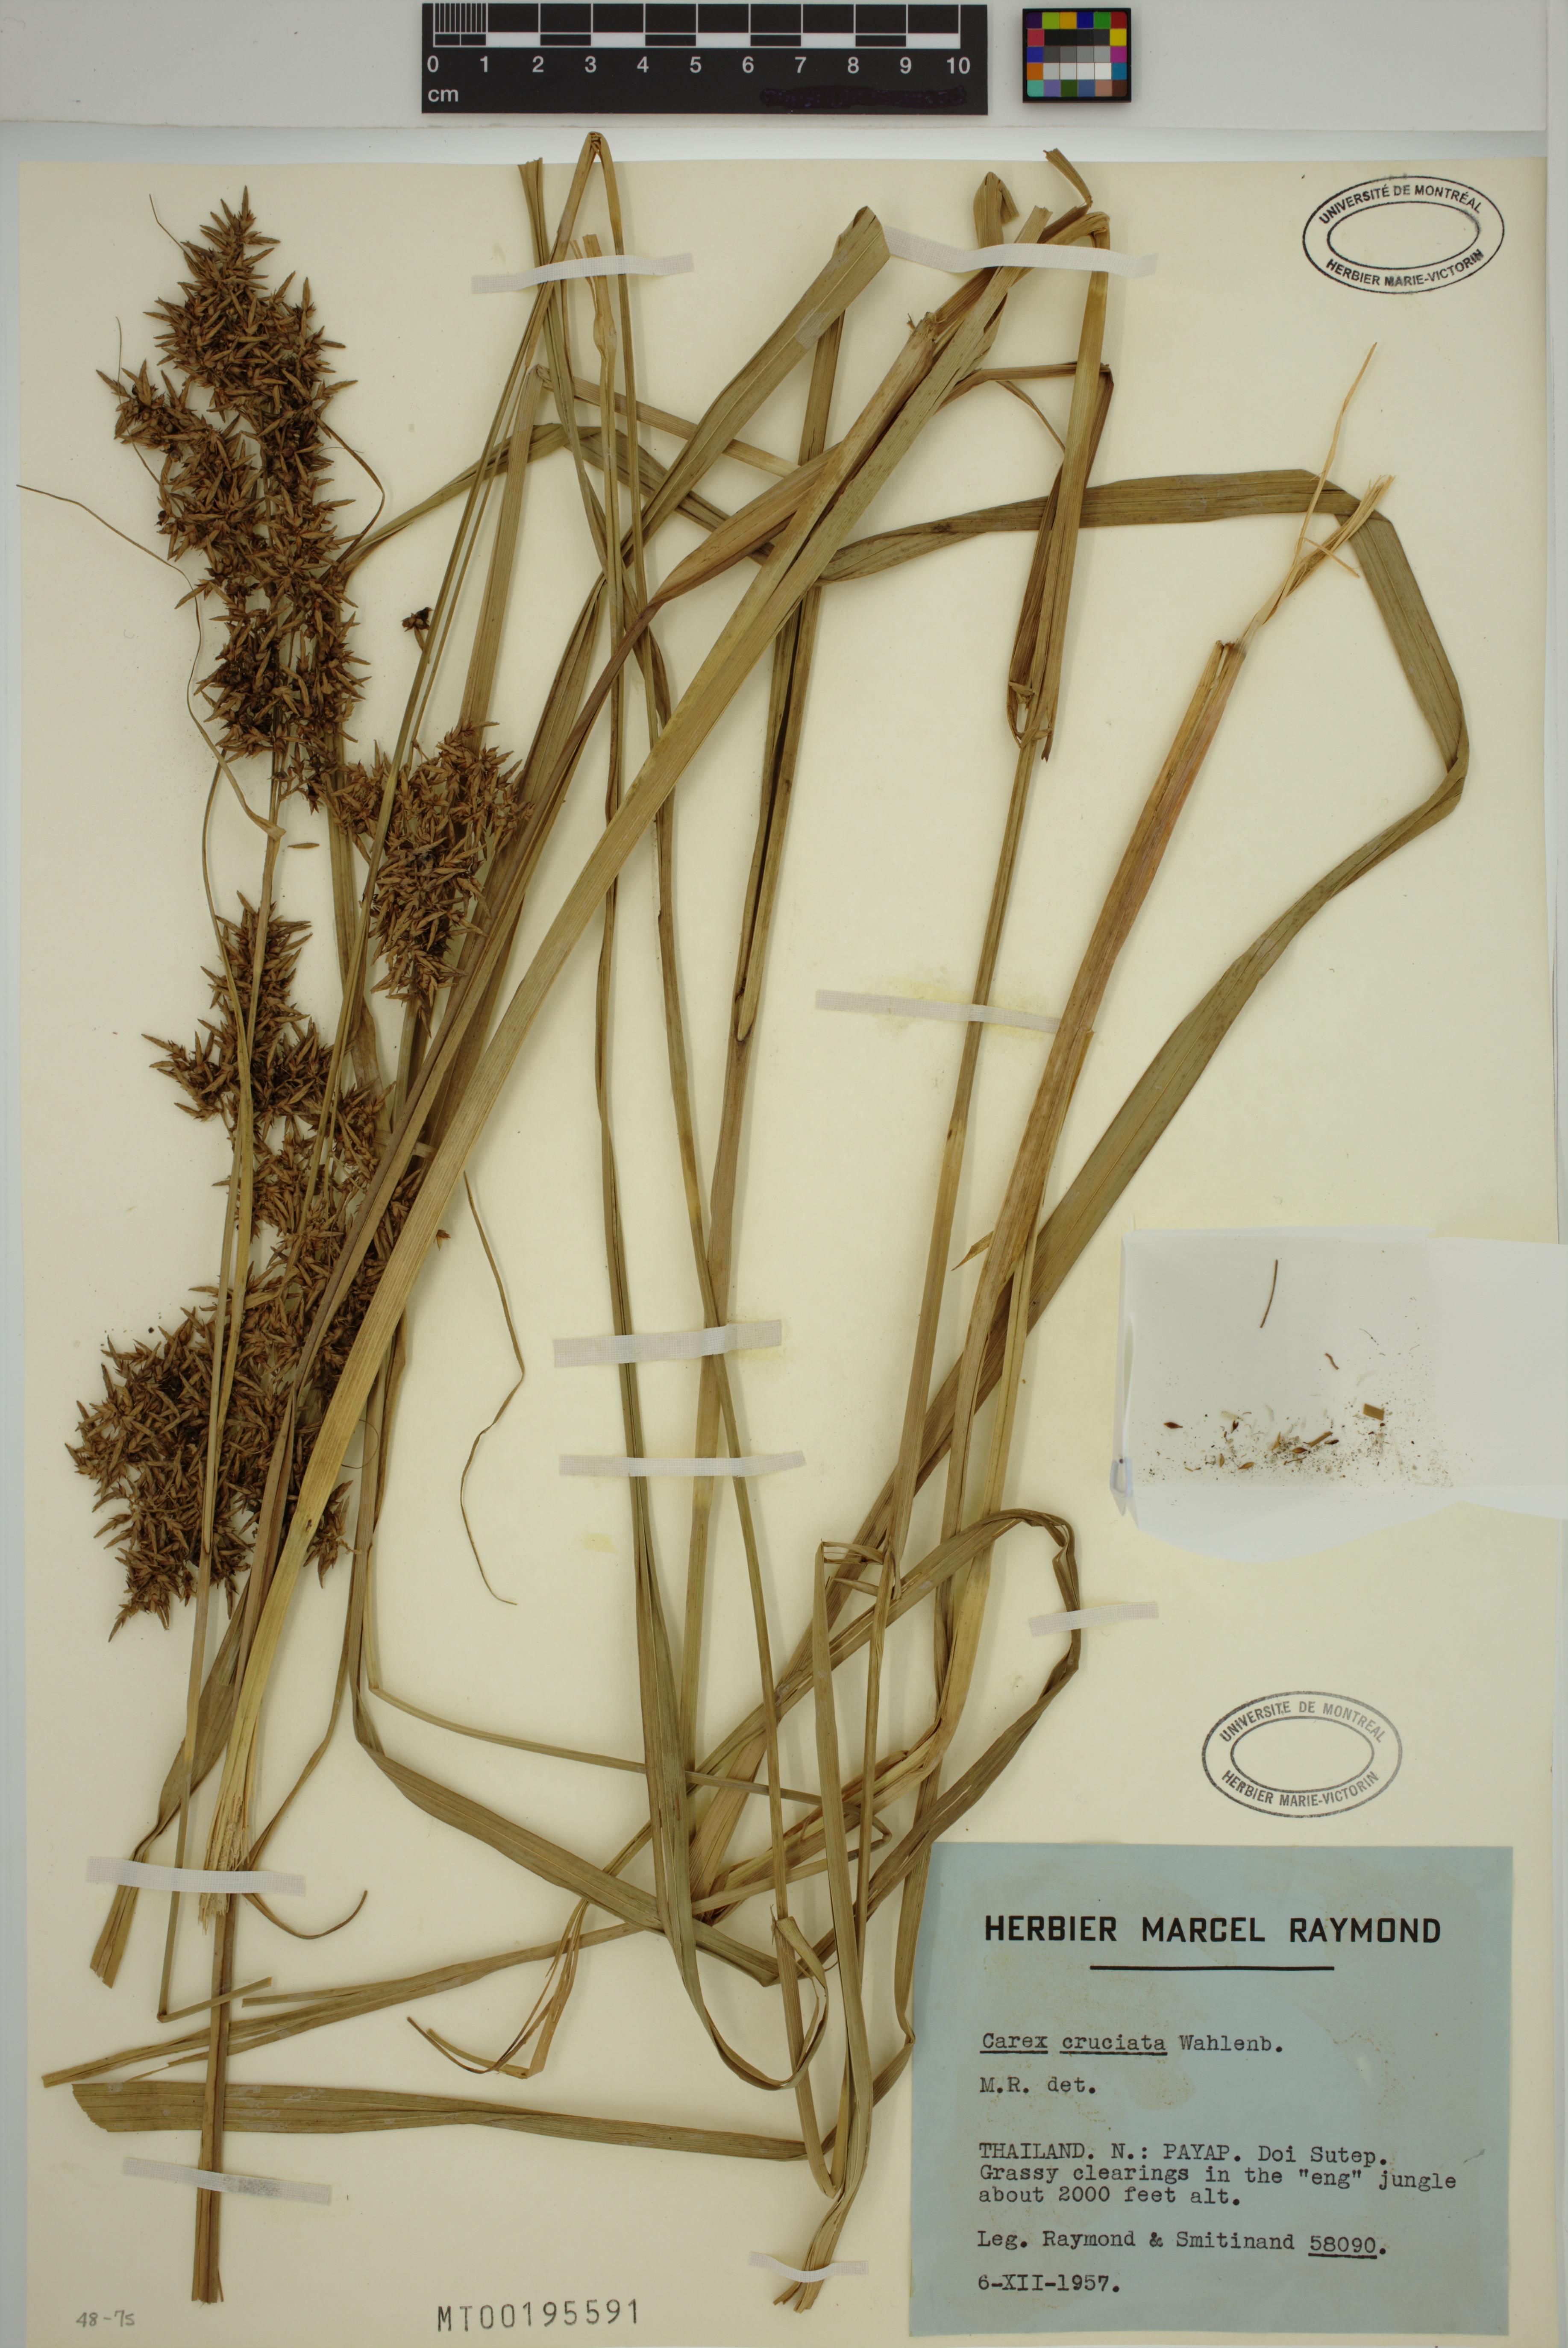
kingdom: Plantae
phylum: Tracheophyta
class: Liliopsida
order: Poales
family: Cyperaceae
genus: Carex
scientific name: Carex cruciata
